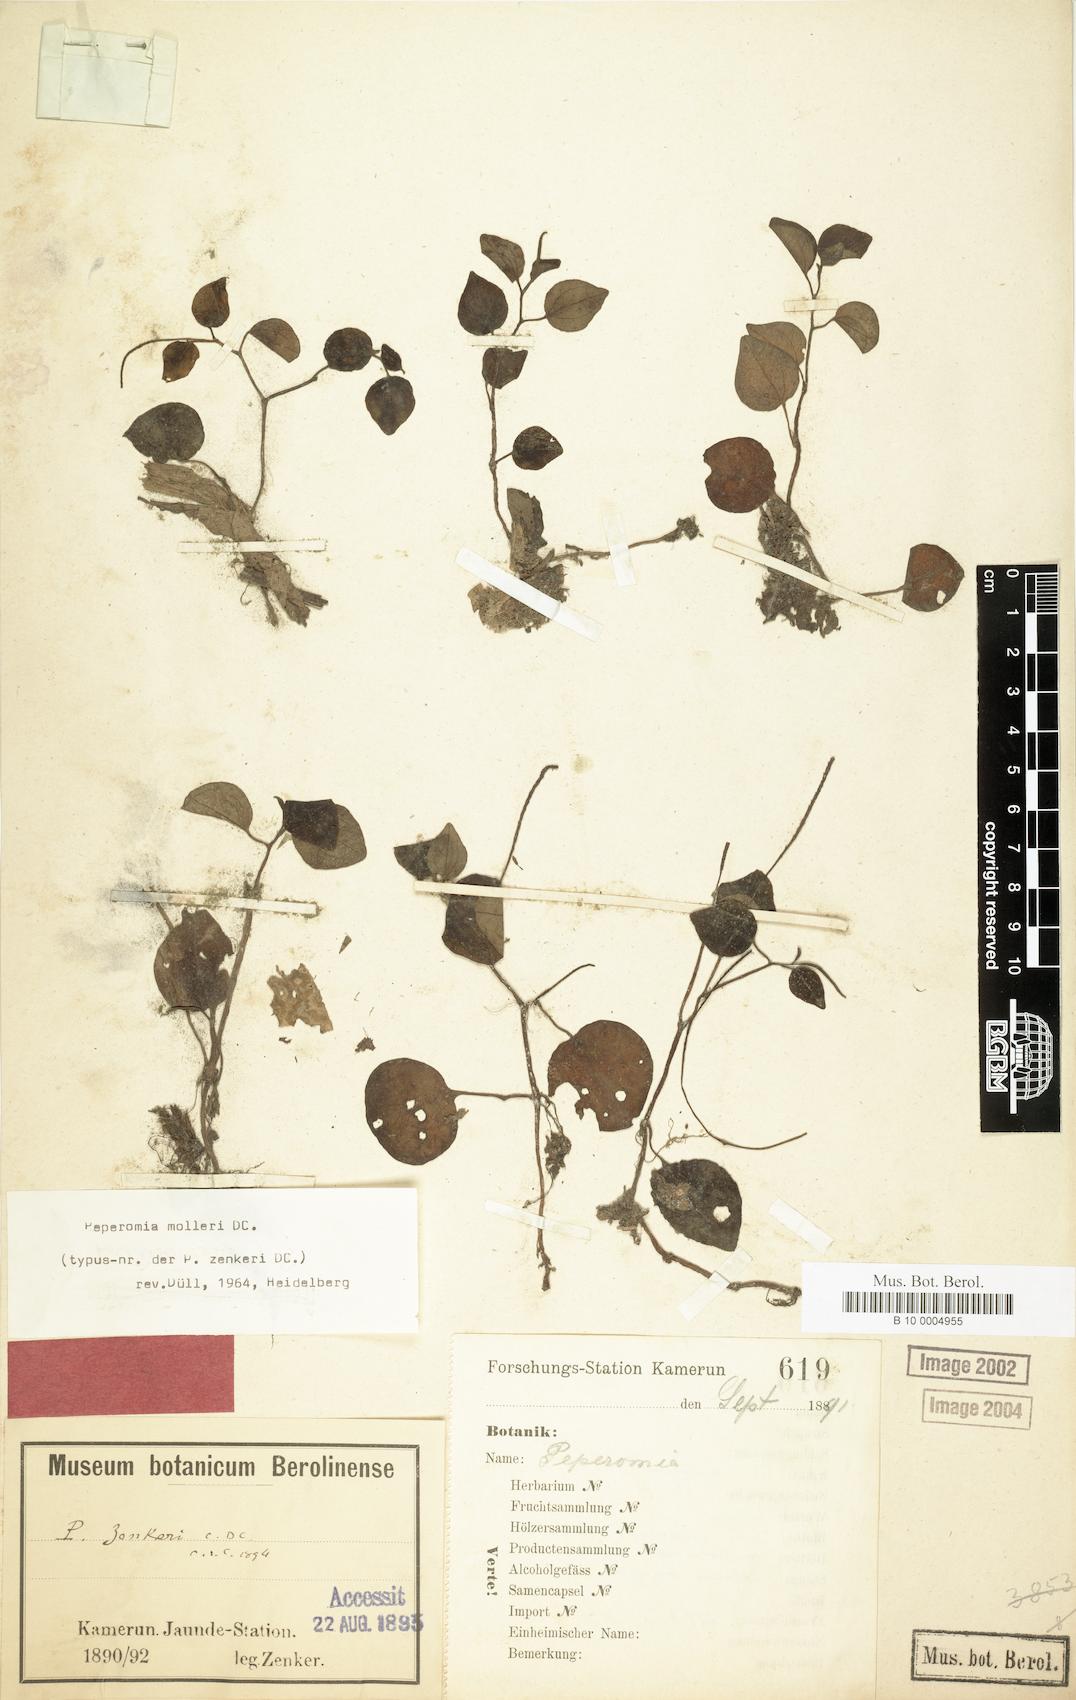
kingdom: Plantae
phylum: Tracheophyta
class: Magnoliopsida
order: Piperales
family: Piperaceae
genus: Peperomia
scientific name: Peperomia molleri
